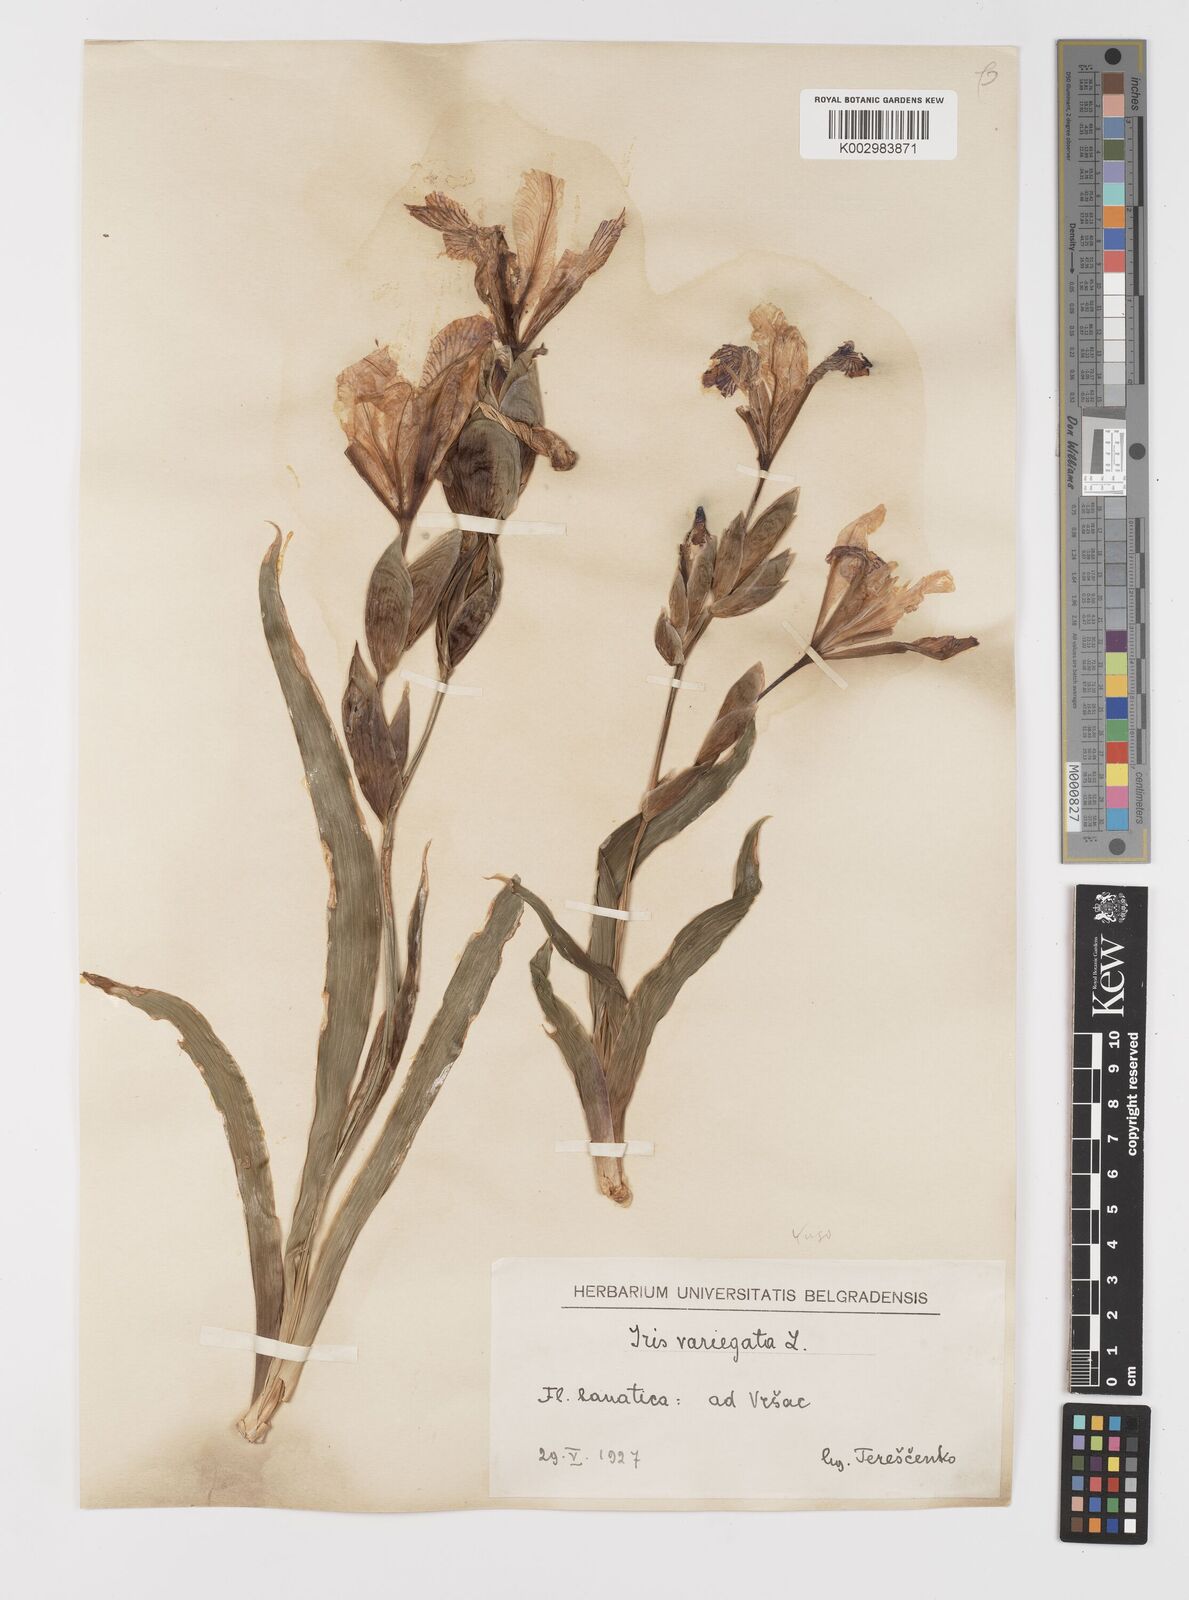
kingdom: Plantae
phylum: Tracheophyta
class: Liliopsida
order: Asparagales
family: Iridaceae
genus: Iris
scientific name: Iris variegata
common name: Hungarian iris
